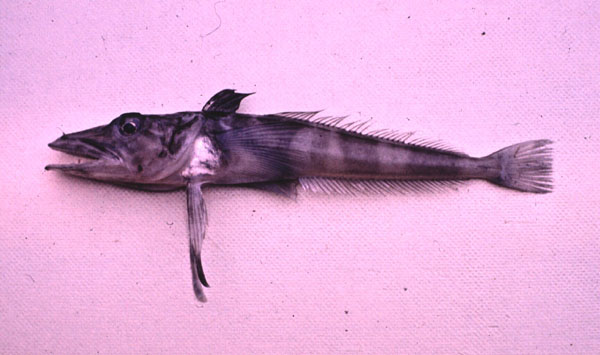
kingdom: Animalia
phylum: Chordata
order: Perciformes
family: Channichthyidae
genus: Chionodraco
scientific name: Chionodraco rastrospinosus
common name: Ocellated icefish
